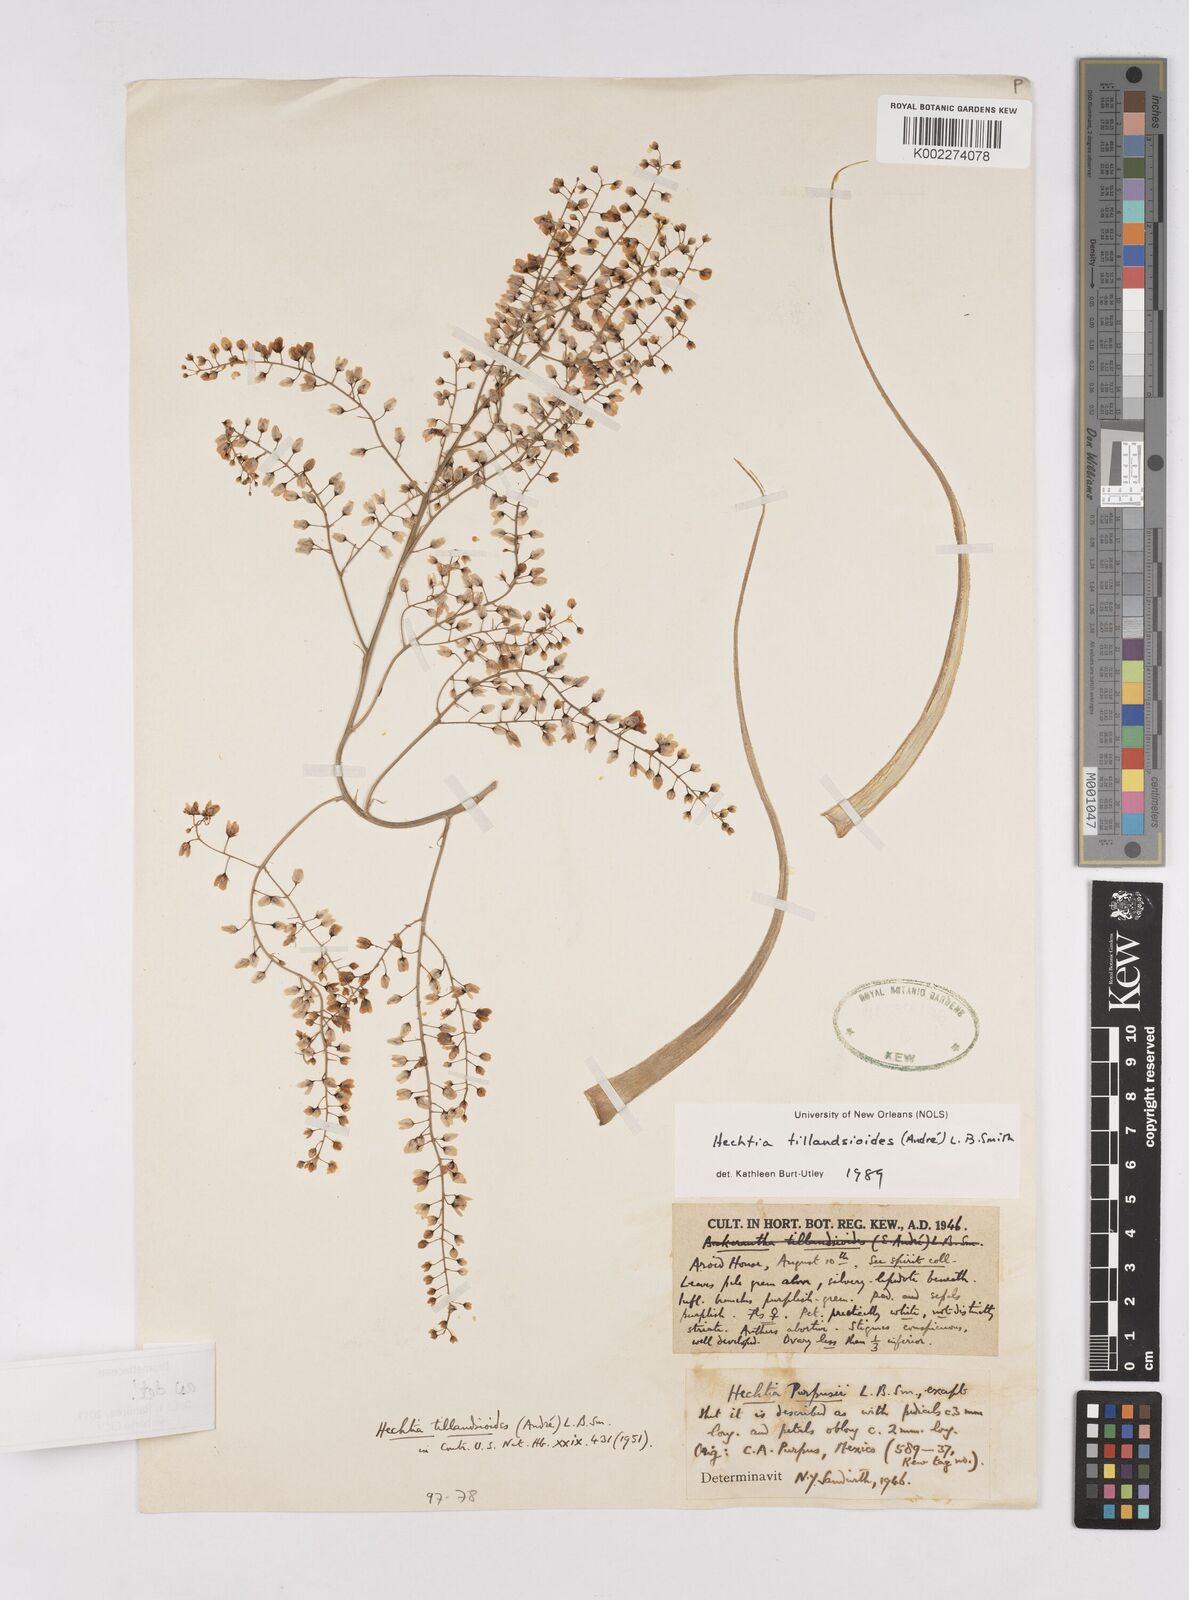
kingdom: Plantae
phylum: Tracheophyta
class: Liliopsida
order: Poales
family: Bromeliaceae
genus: Hechtia
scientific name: Hechtia tillandsioides
